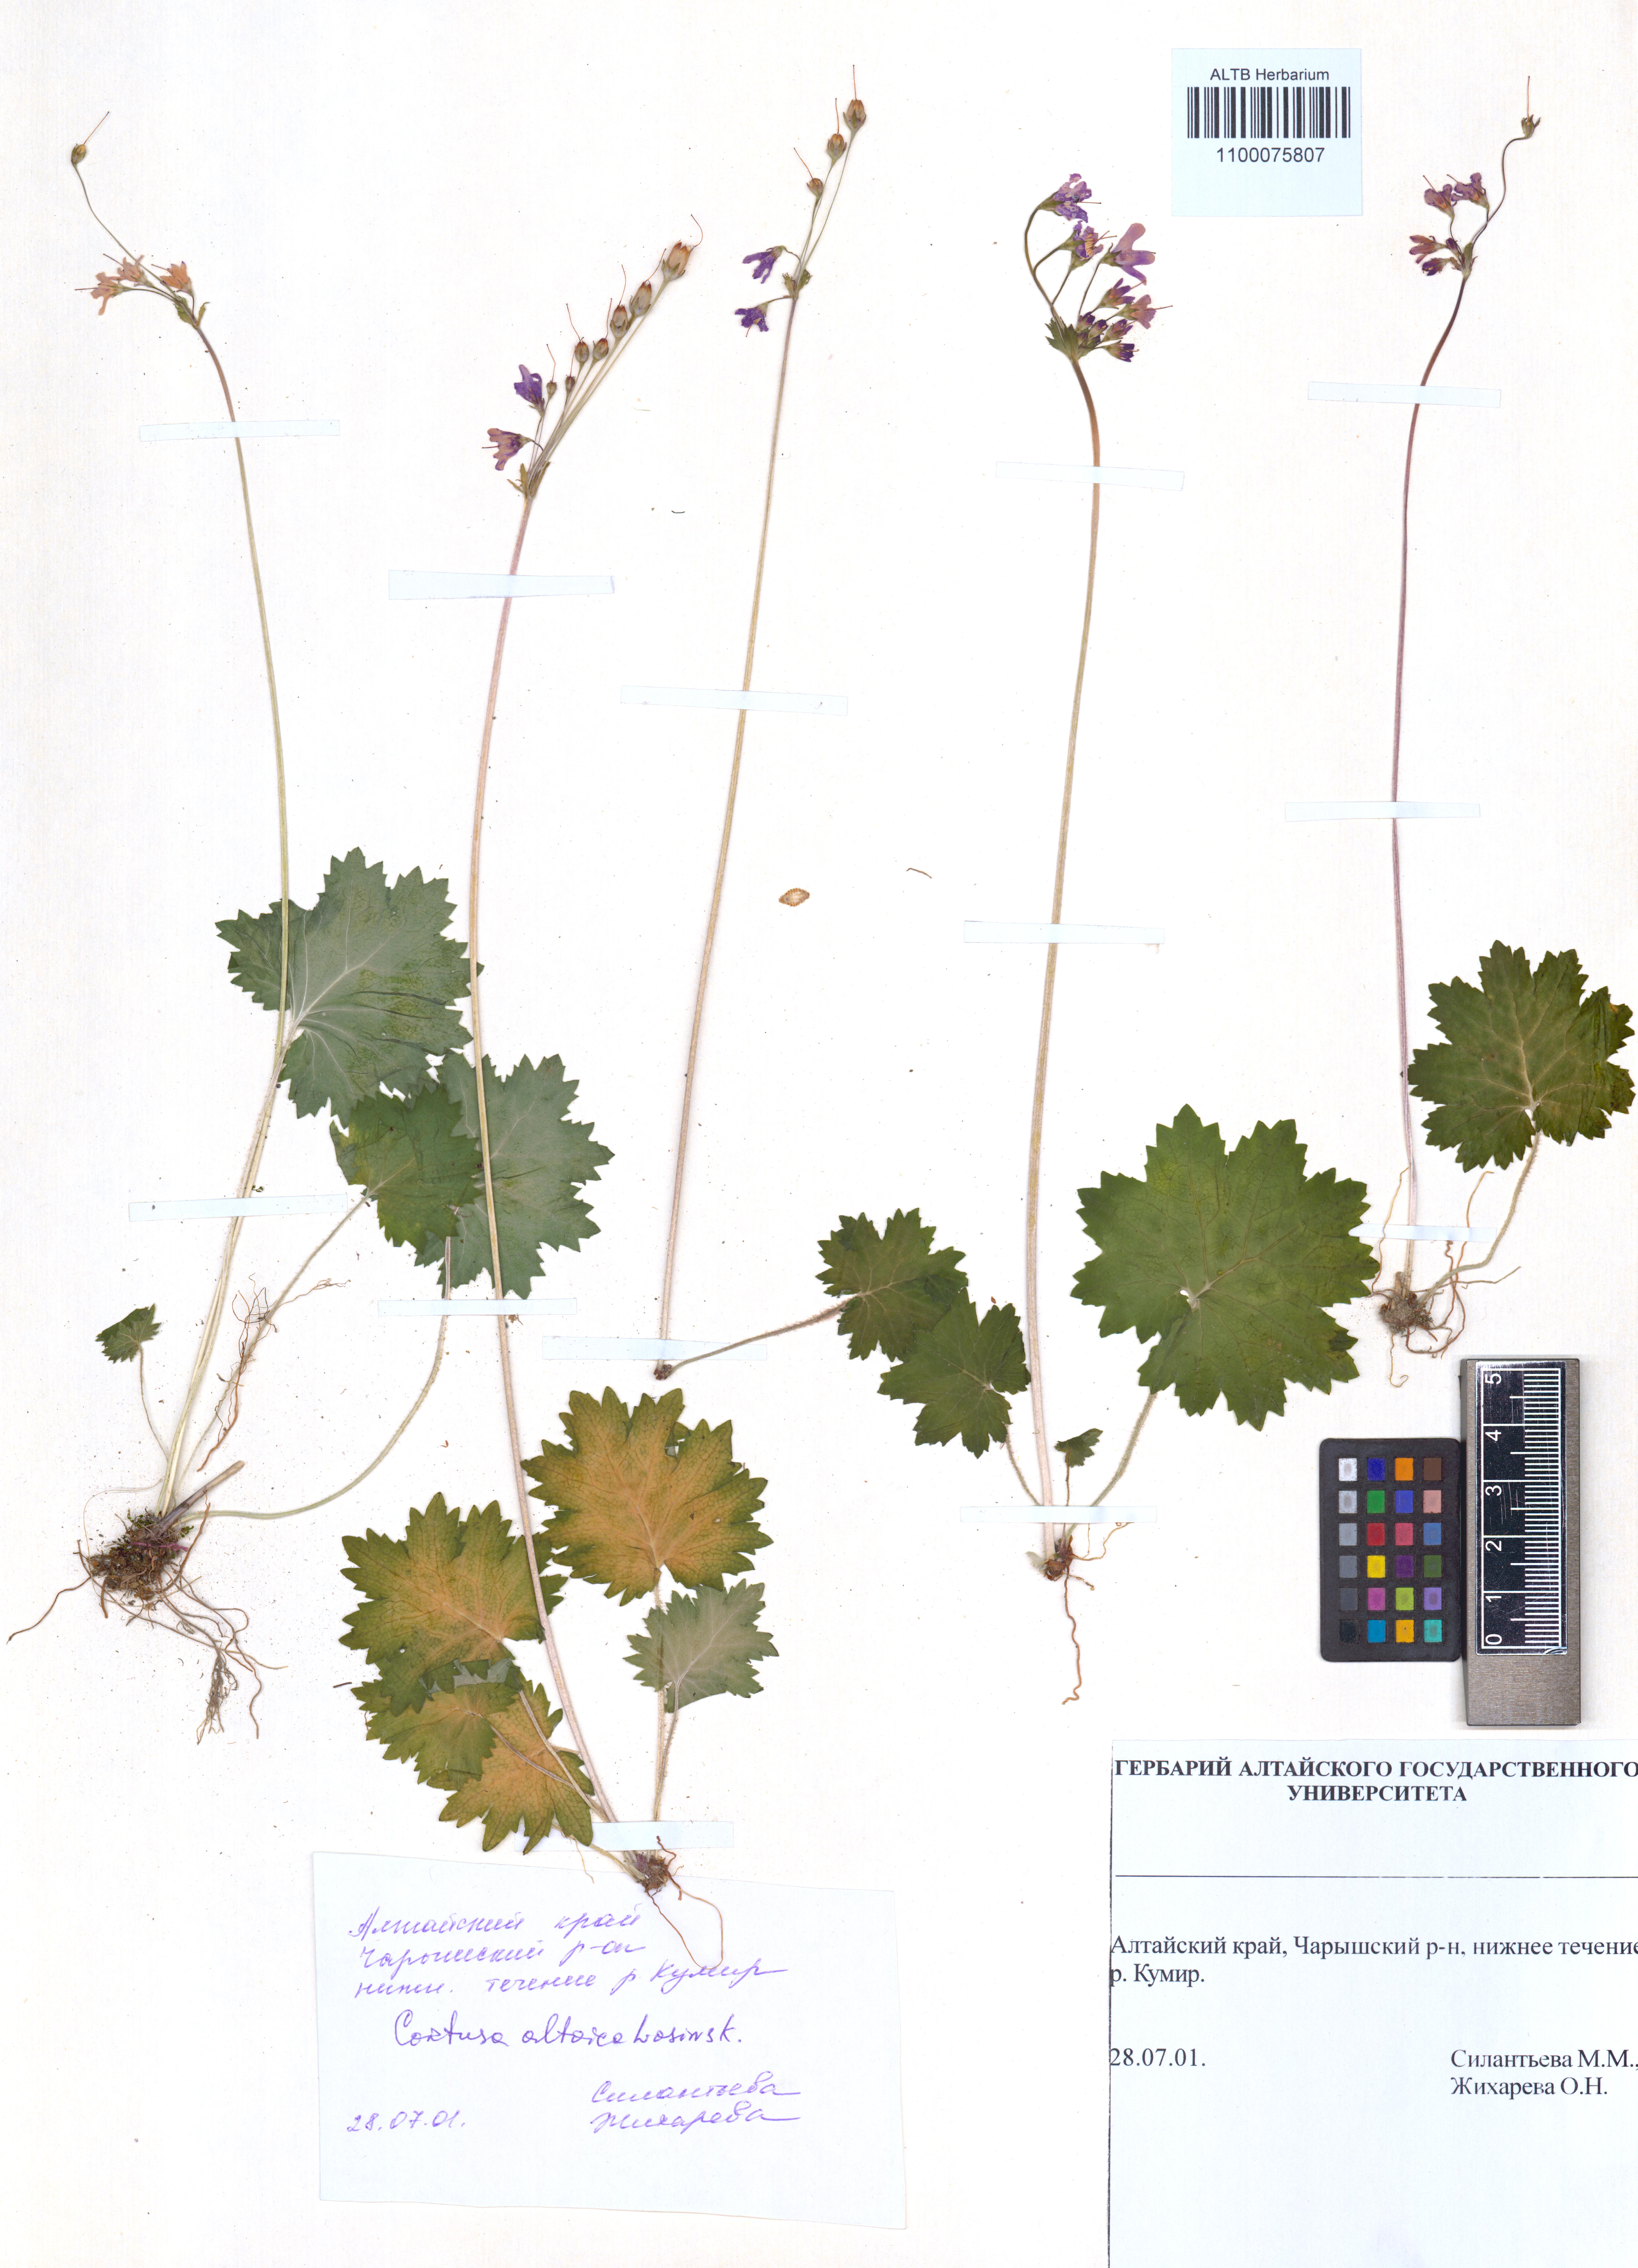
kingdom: Plantae
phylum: Tracheophyta
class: Magnoliopsida
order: Ericales
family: Primulaceae
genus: Primula
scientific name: Primula matthioli
